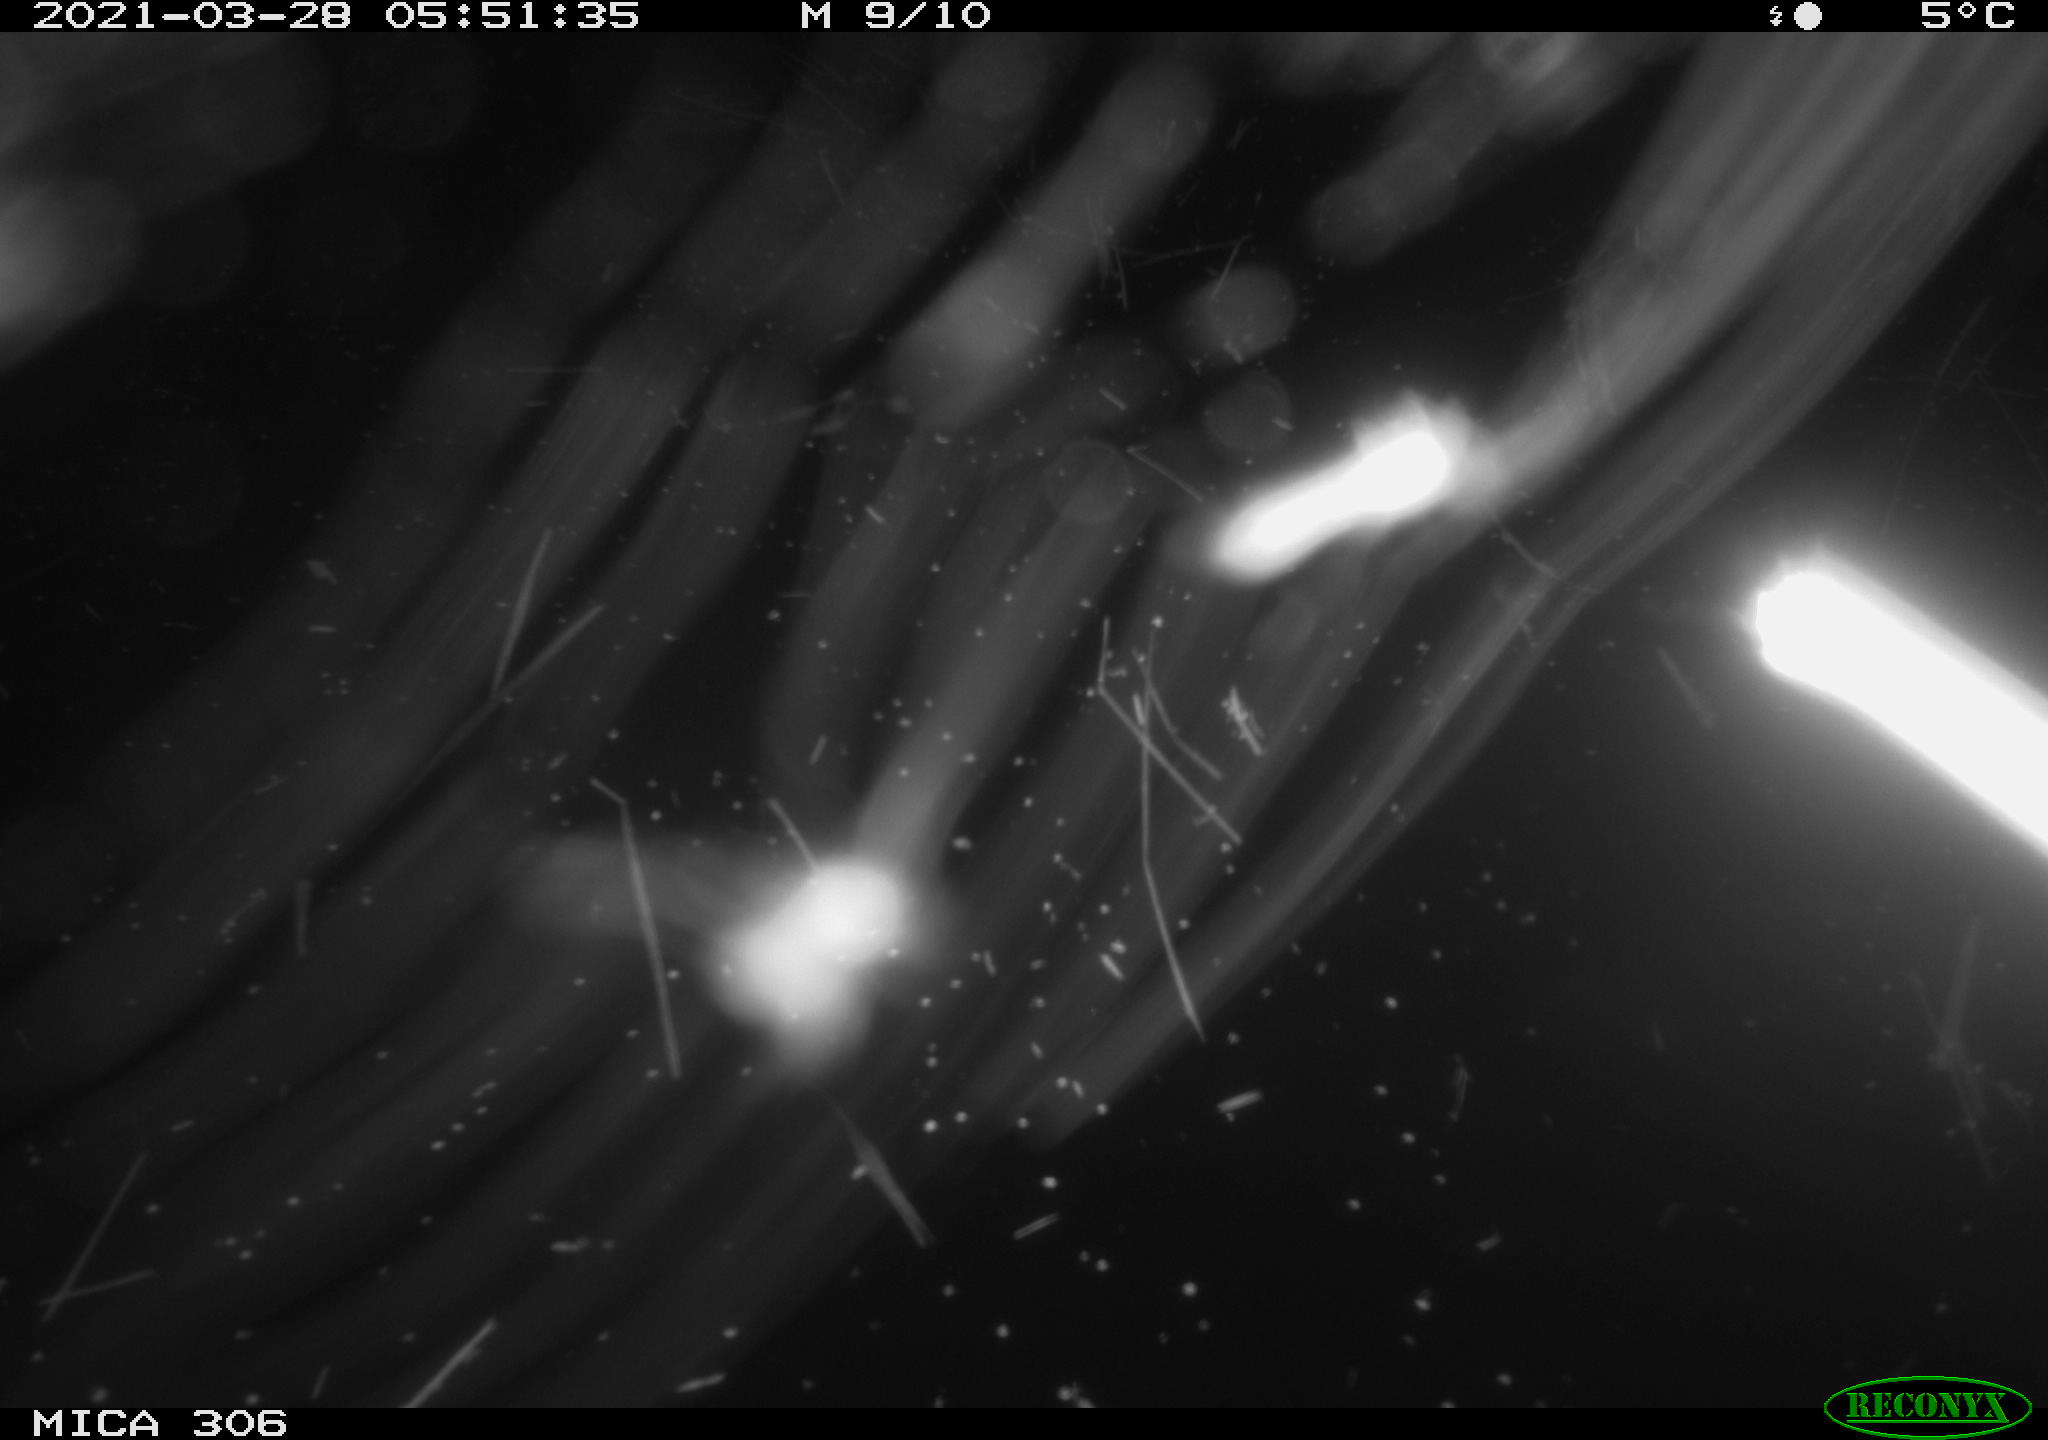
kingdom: Animalia
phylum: Chordata
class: Aves
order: Gruiformes
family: Rallidae
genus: Gallinula
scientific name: Gallinula chloropus
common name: Common moorhen
